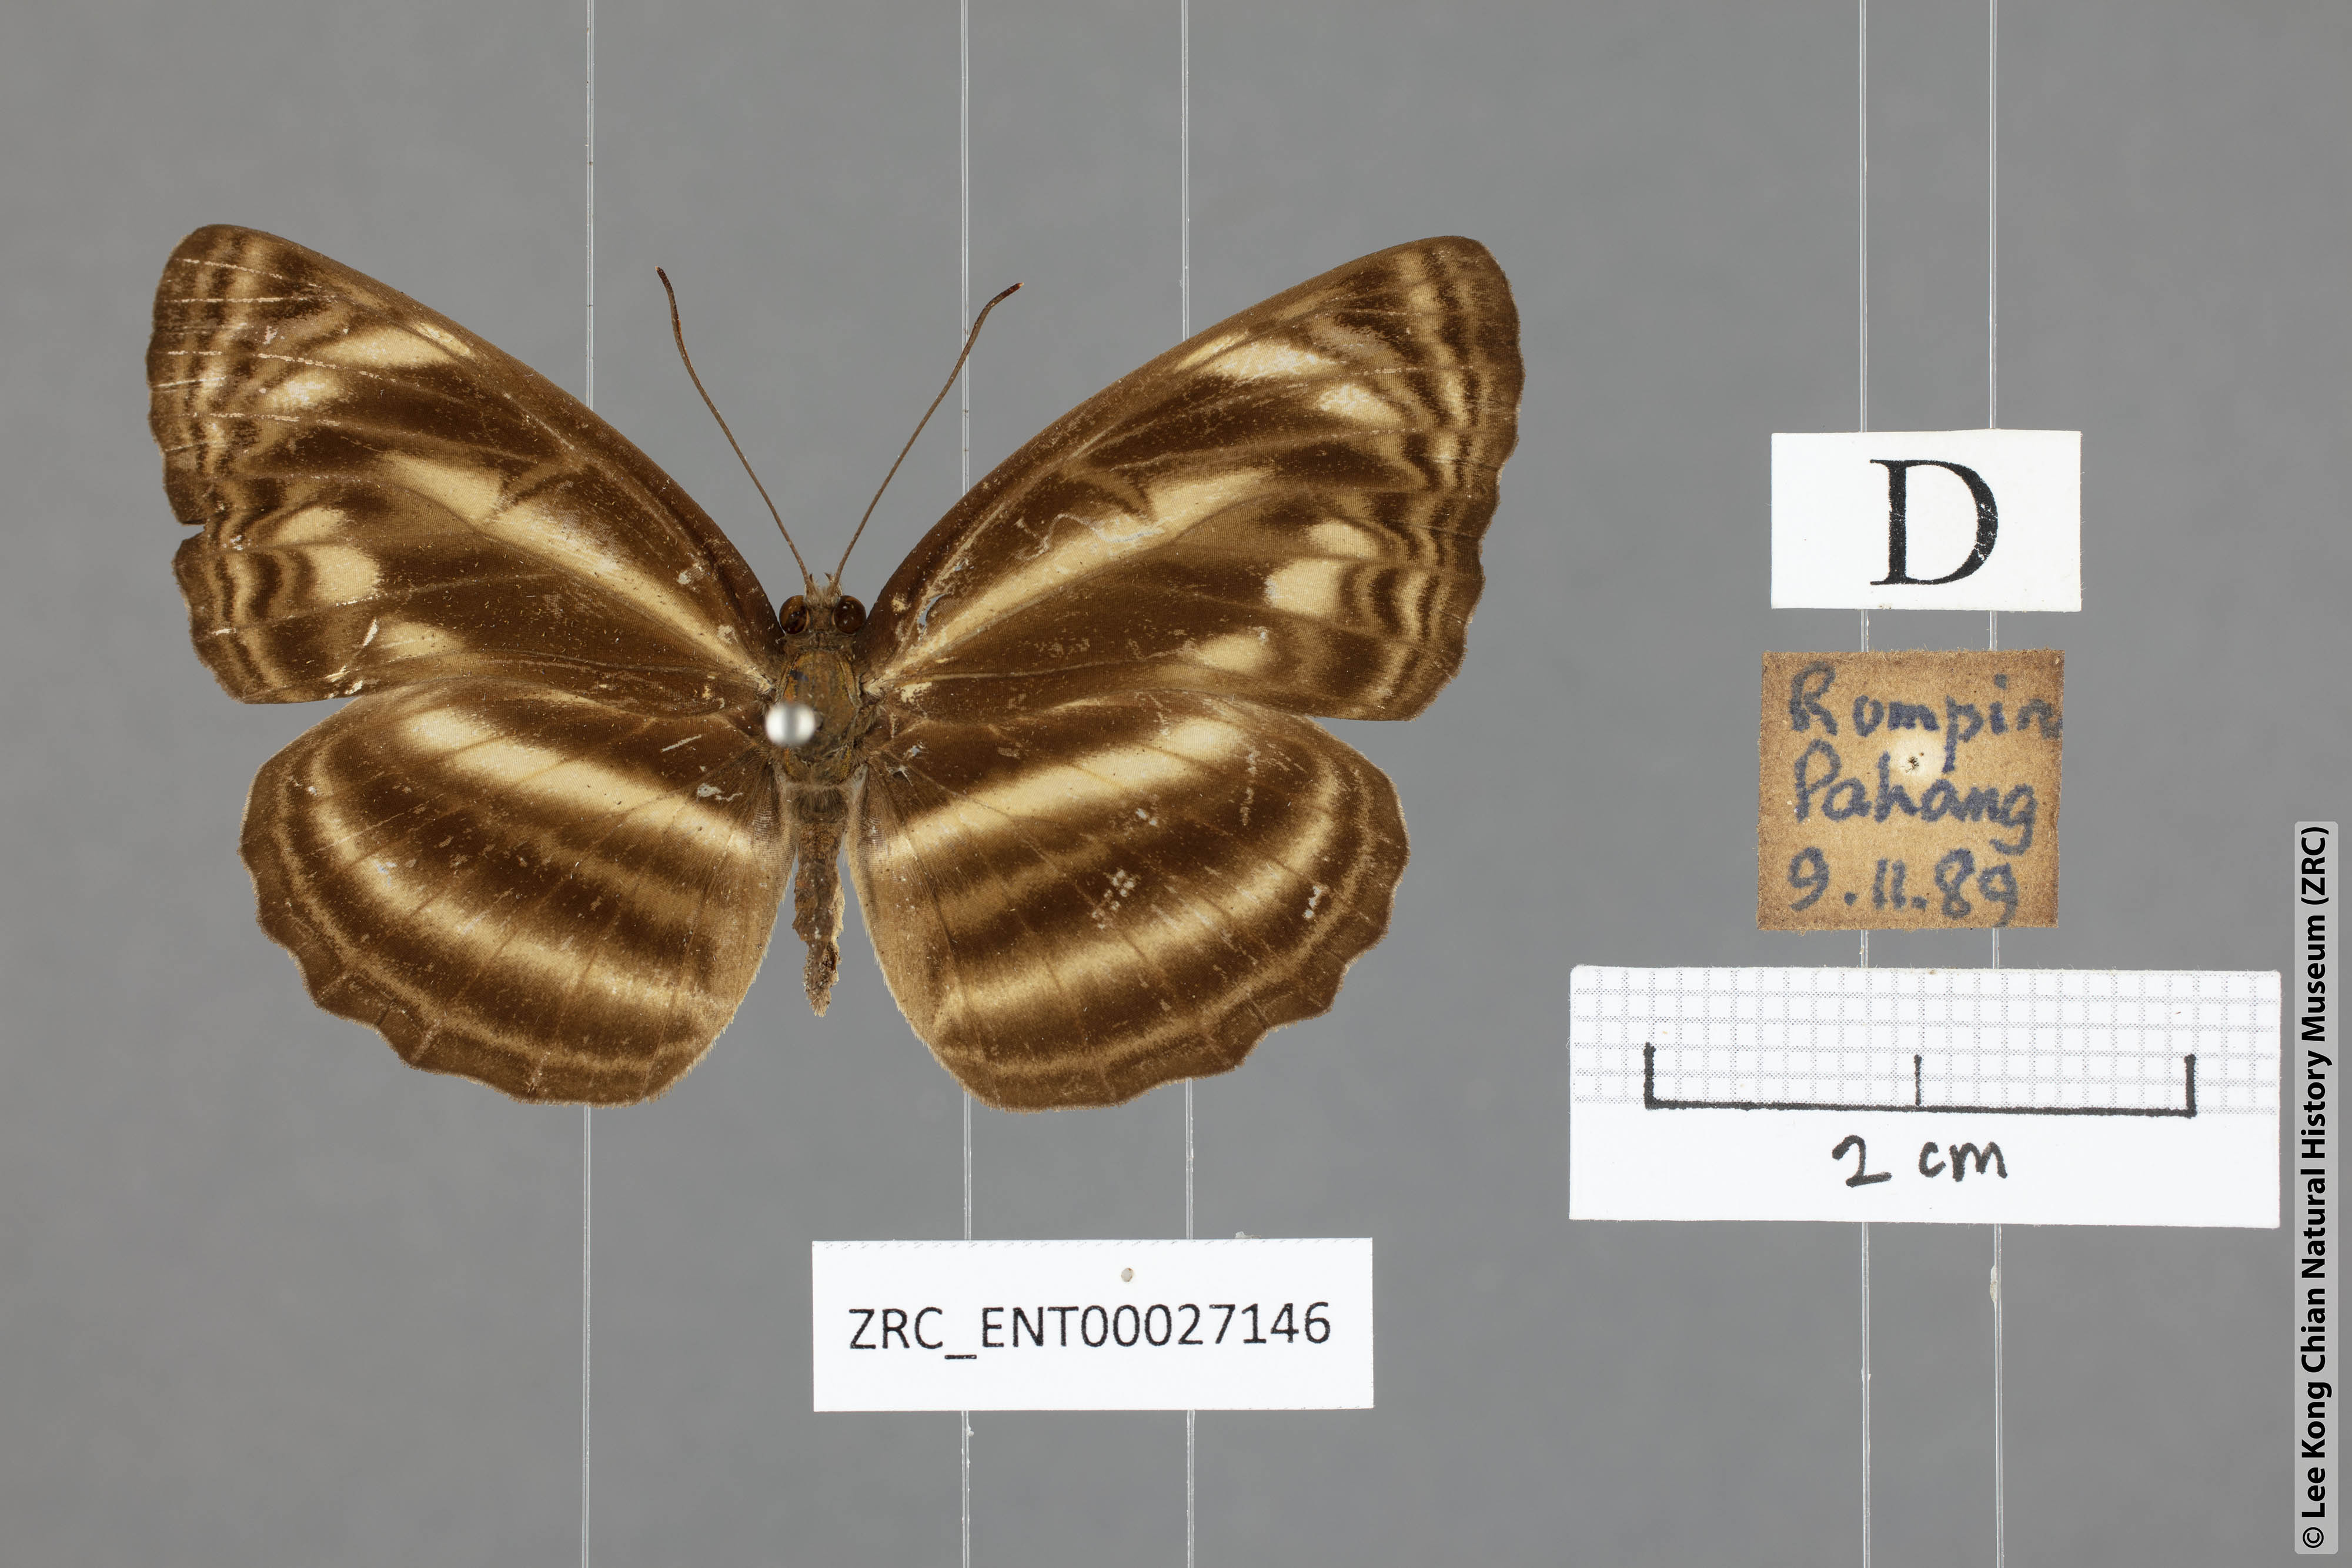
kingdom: Animalia
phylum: Arthropoda
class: Insecta
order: Lepidoptera
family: Nymphalidae
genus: Neptis
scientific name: Neptis harita
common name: Chocolate sailer
